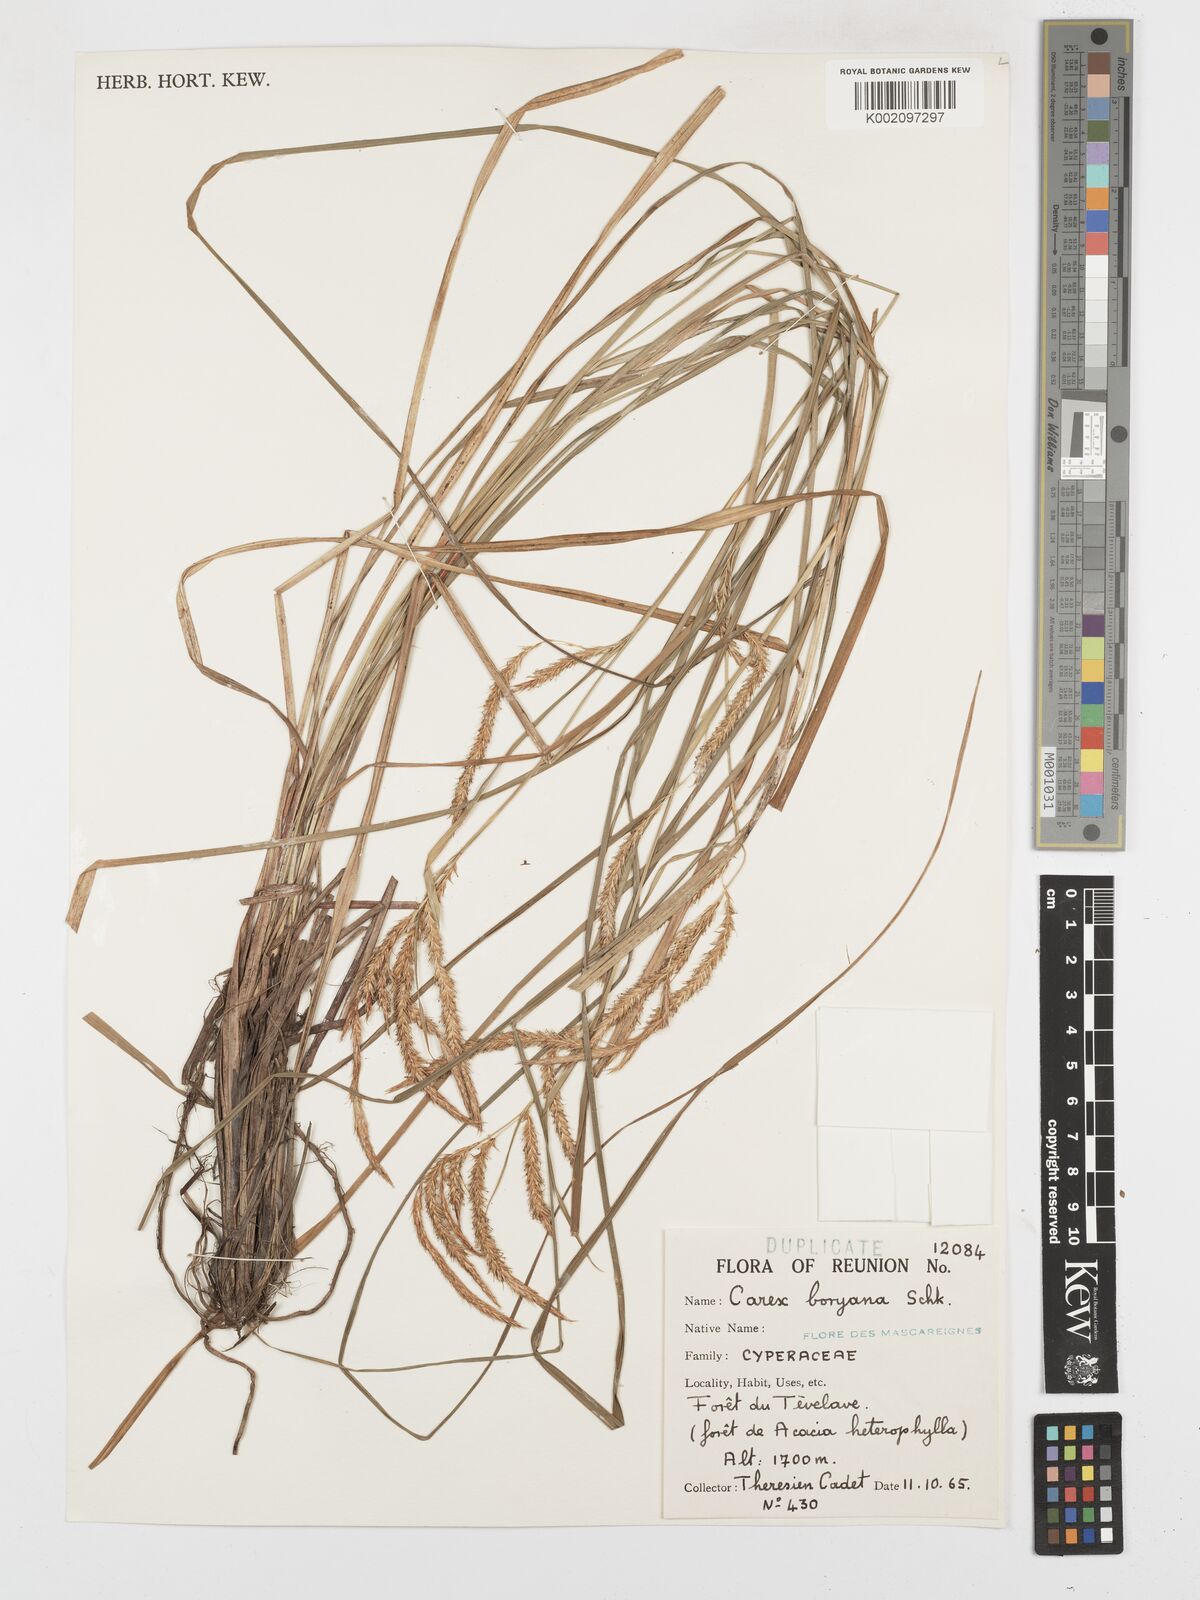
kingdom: Plantae
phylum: Tracheophyta
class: Liliopsida
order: Poales
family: Cyperaceae
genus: Carex
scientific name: Carex boryana
